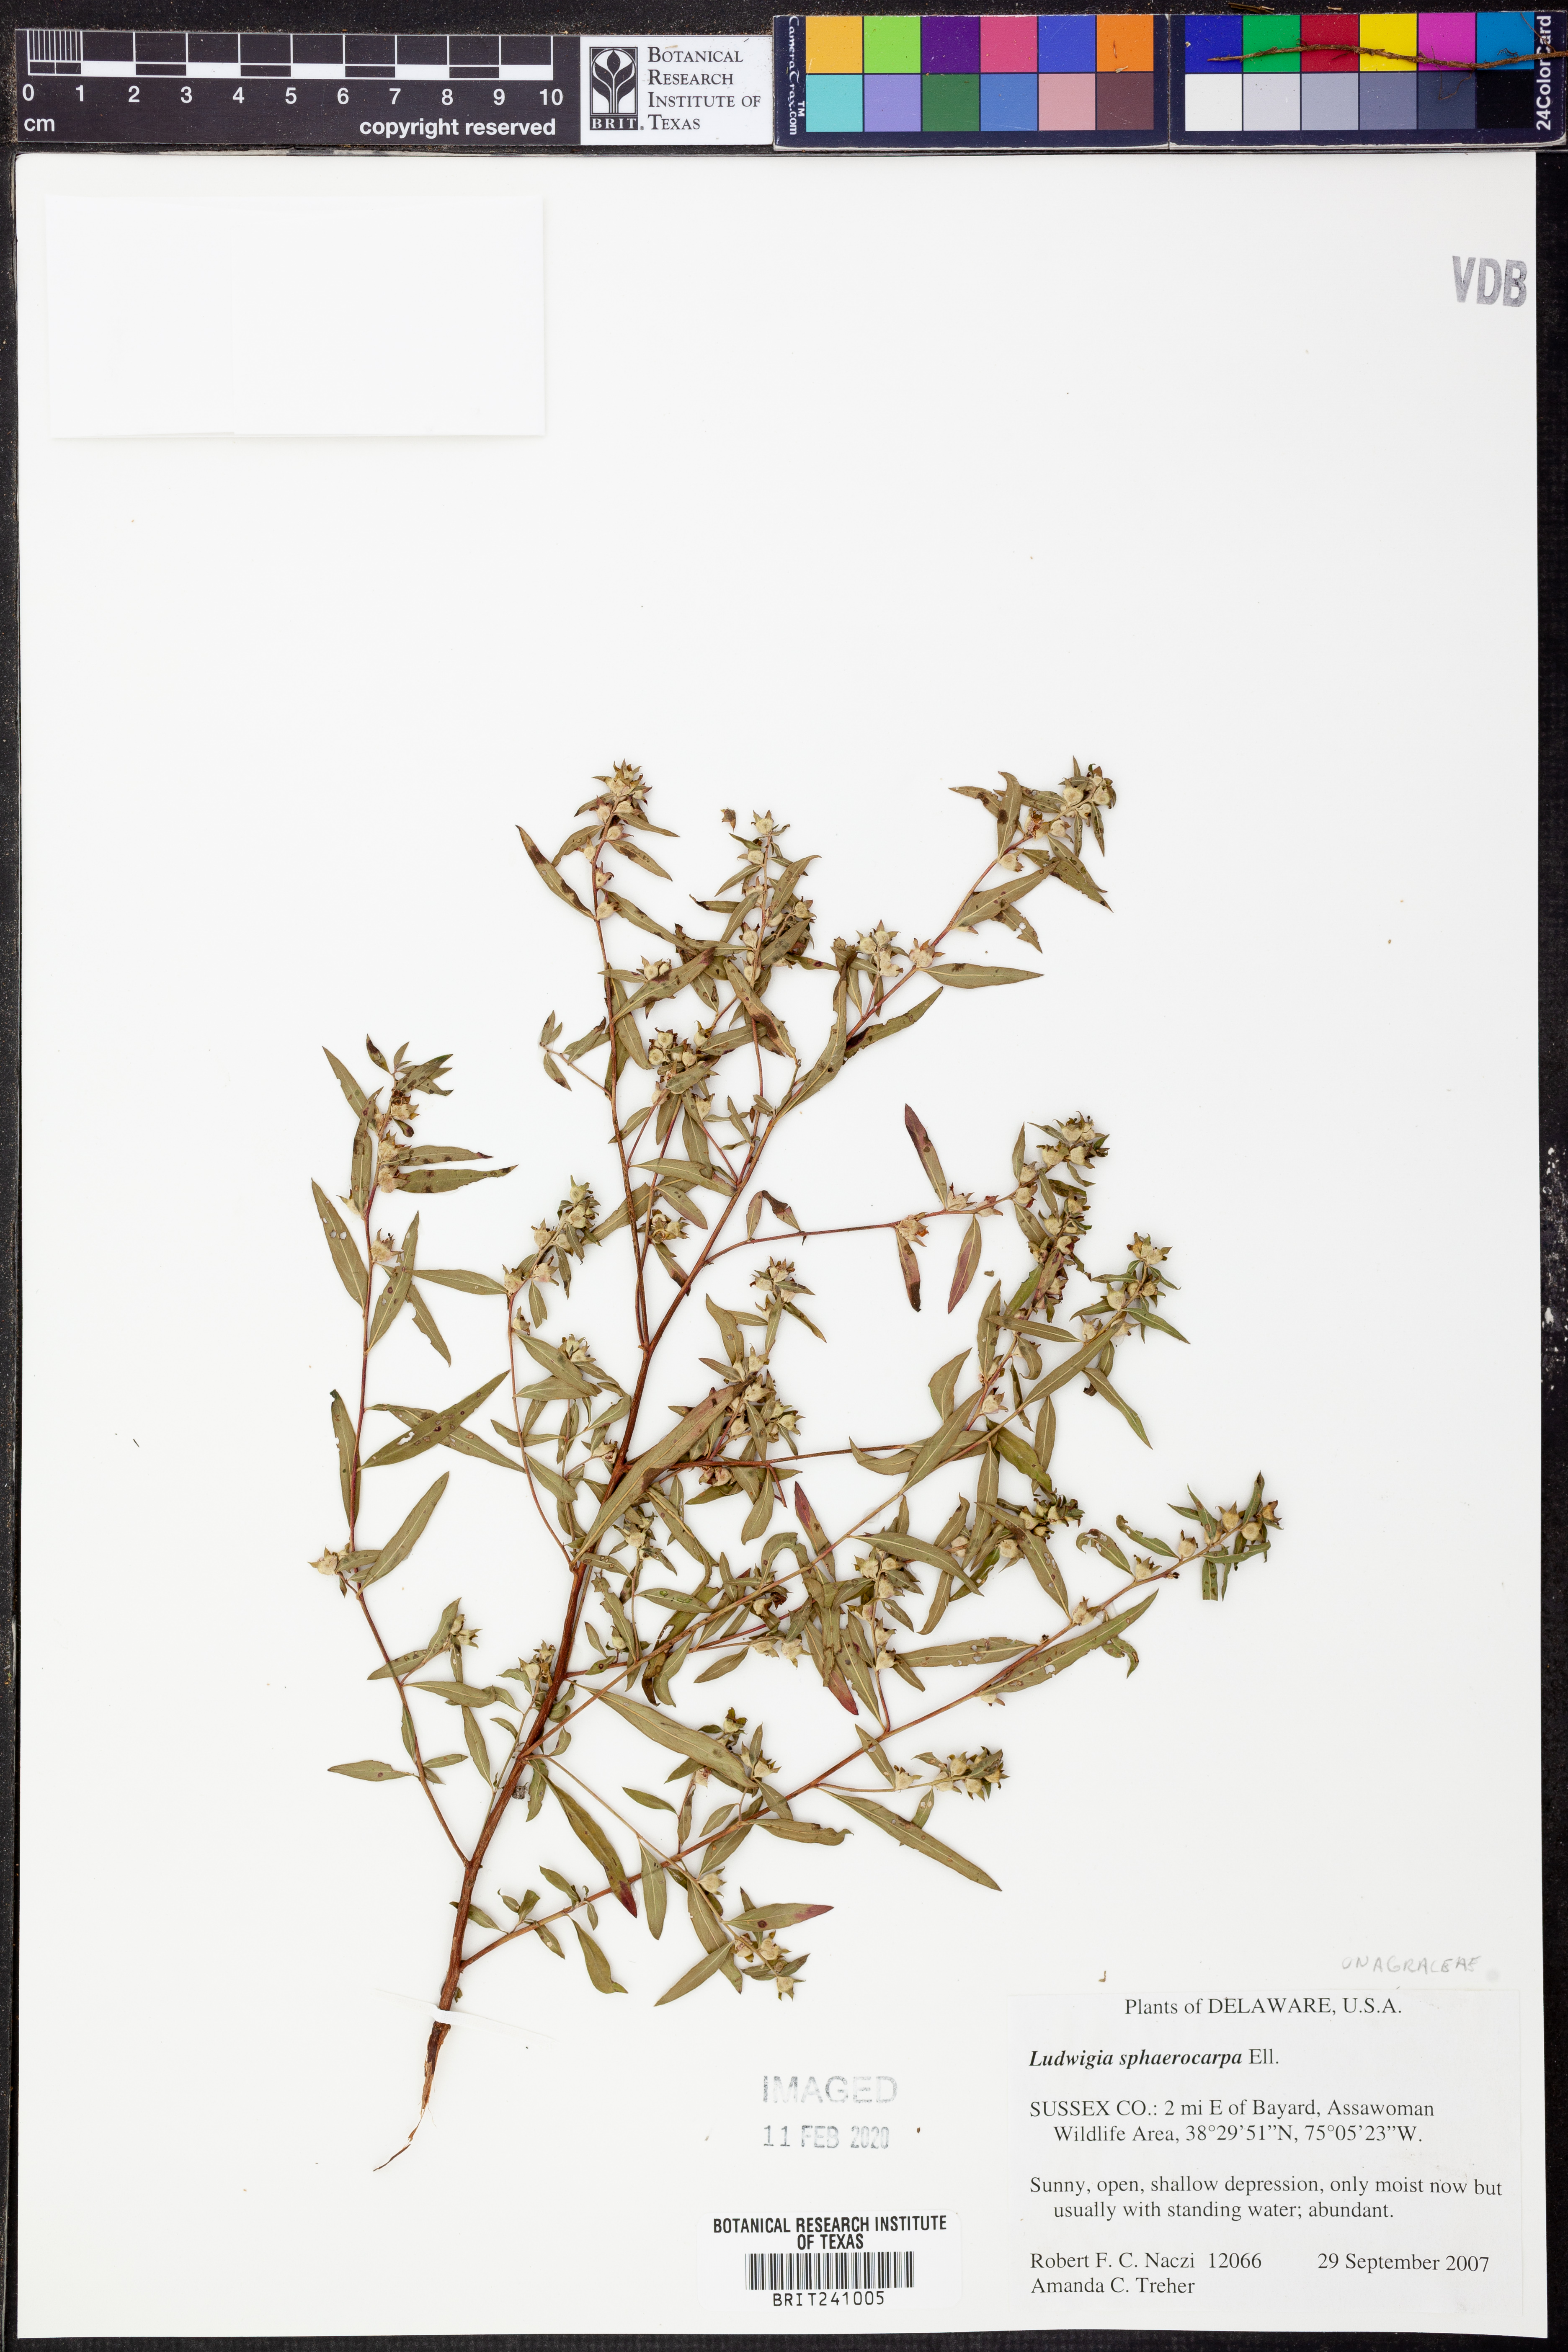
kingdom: Plantae
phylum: Tracheophyta
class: Magnoliopsida
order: Myrtales
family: Onagraceae
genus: Ludwigia
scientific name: Ludwigia sphaerocarpa
